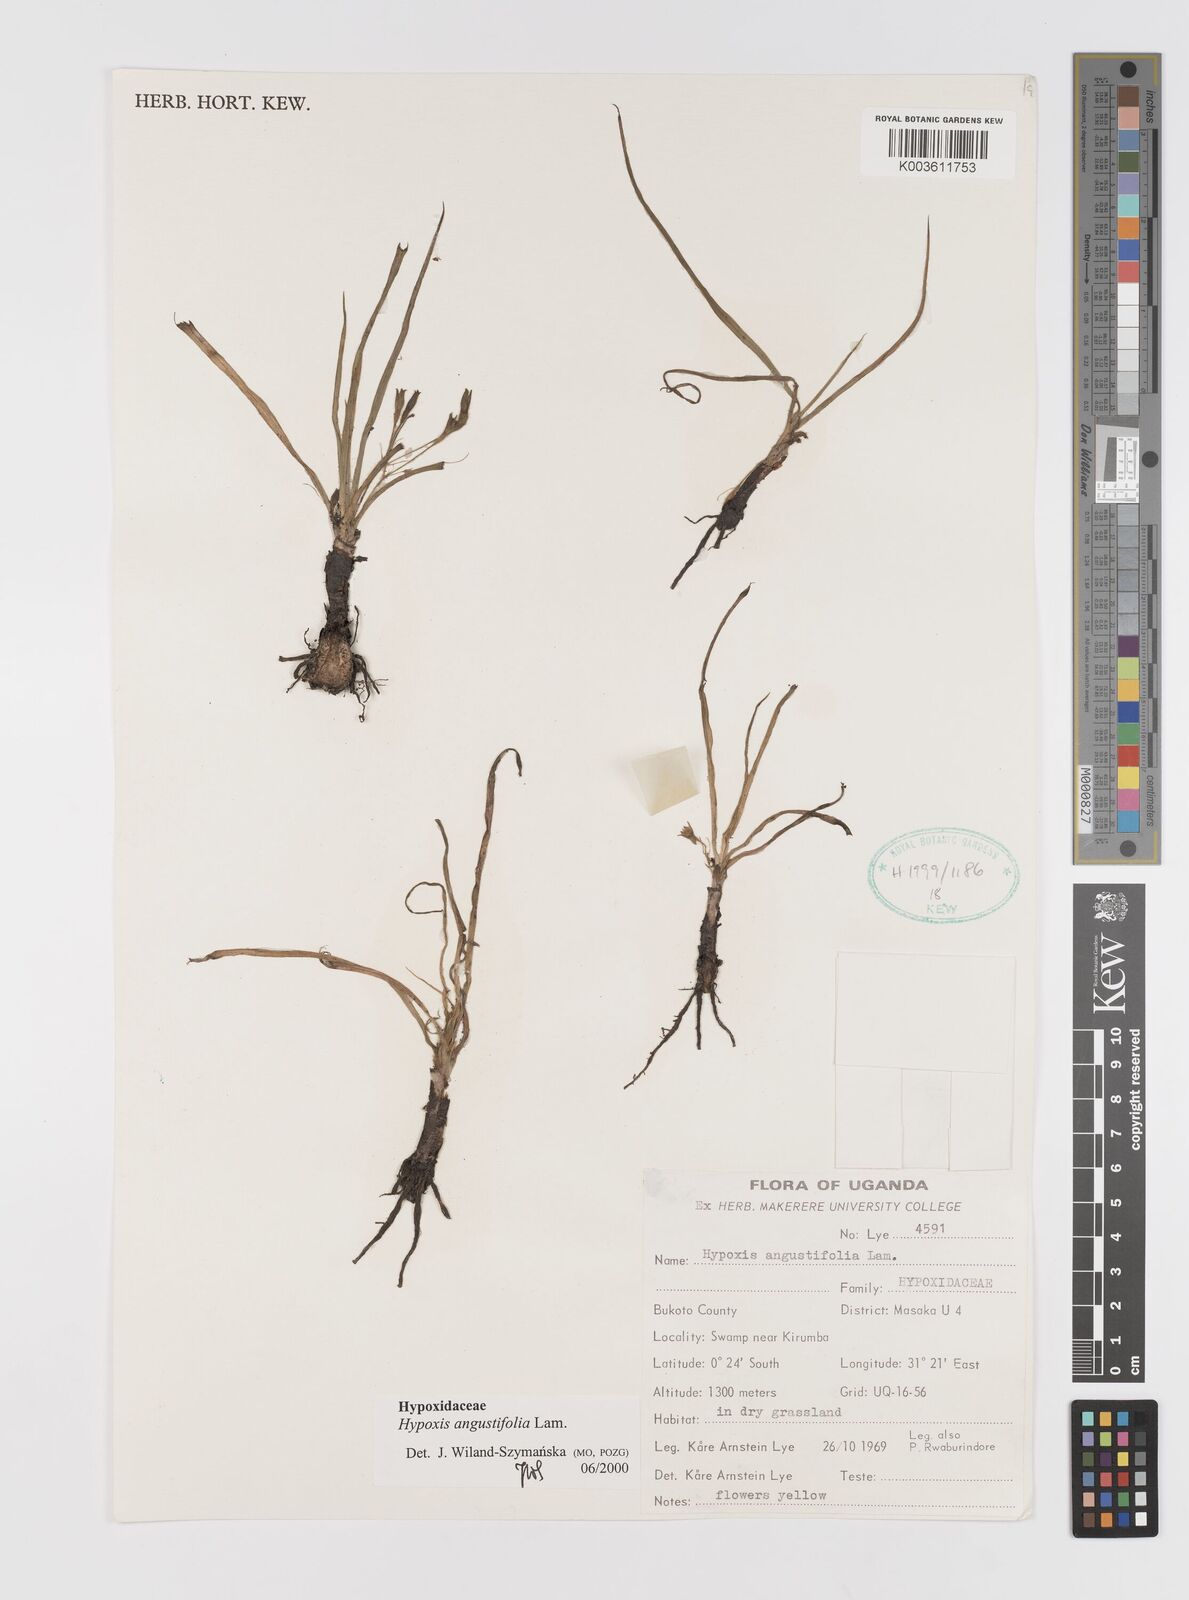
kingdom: Plantae
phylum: Tracheophyta
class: Liliopsida
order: Asparagales
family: Hypoxidaceae
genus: Hypoxis
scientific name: Hypoxis angustifolia
